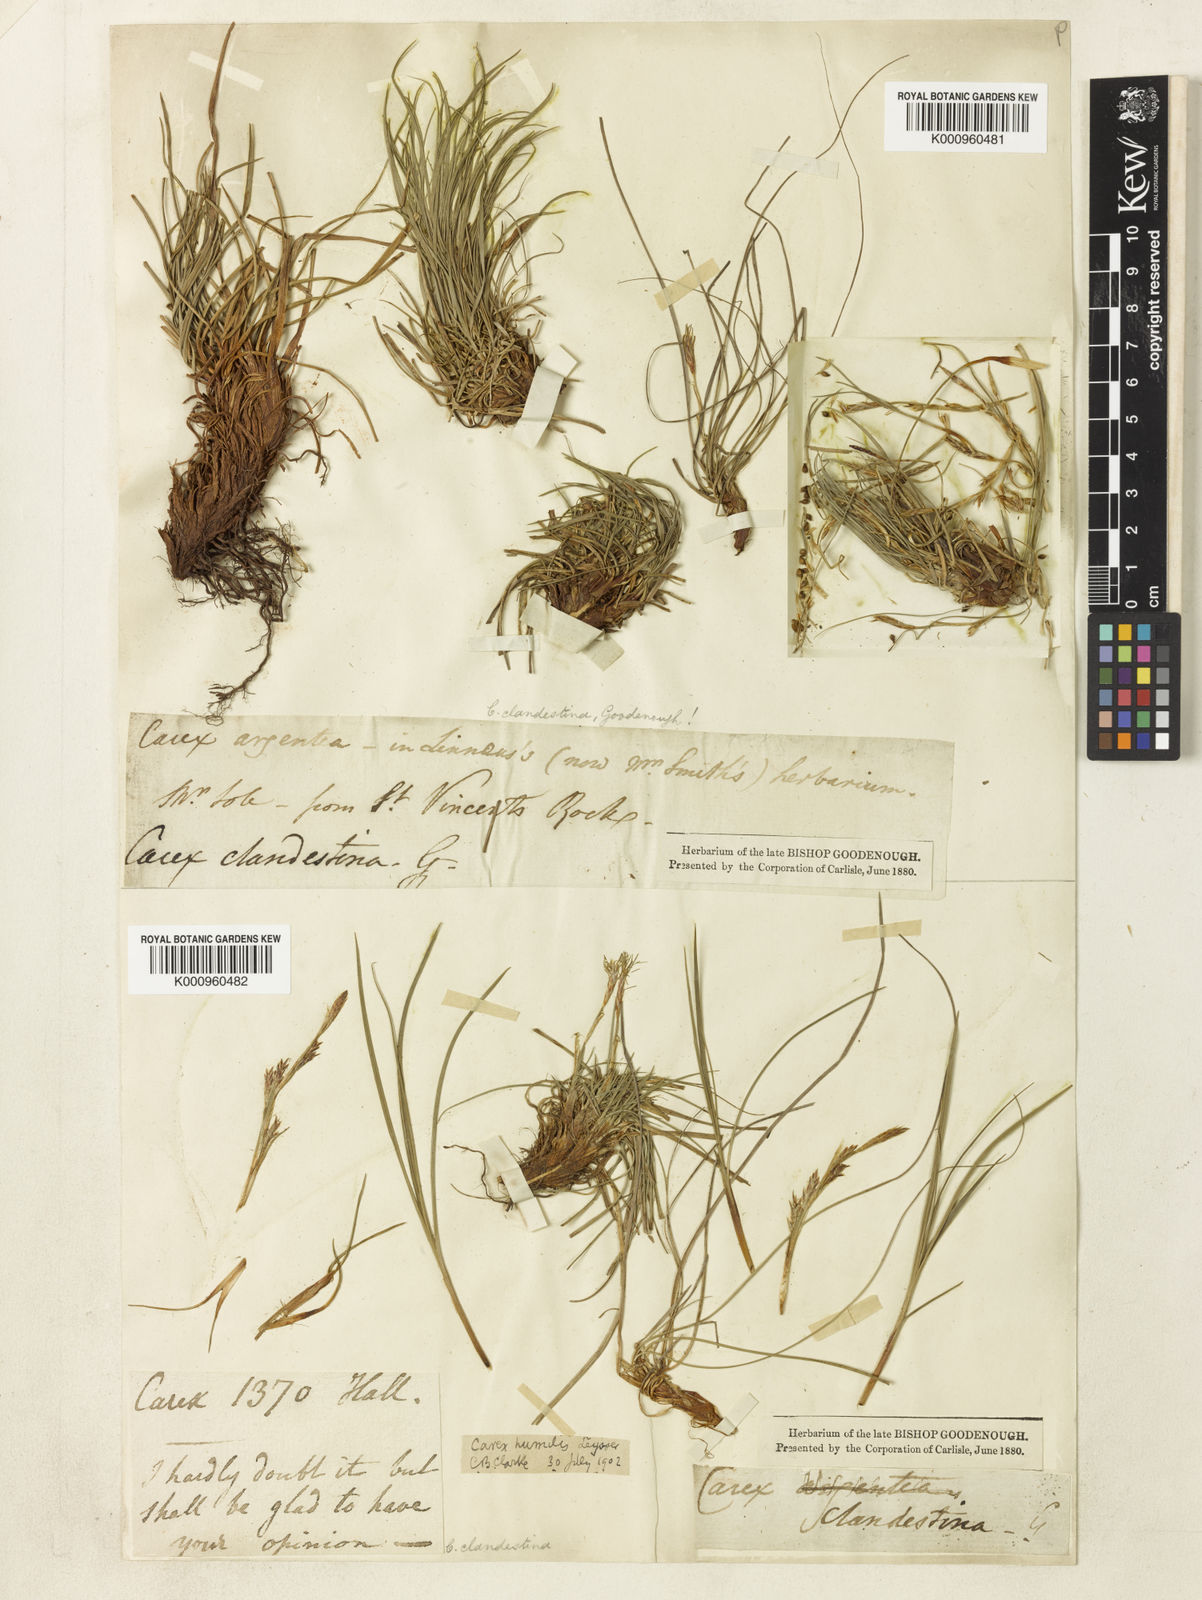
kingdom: Plantae
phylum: Tracheophyta
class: Liliopsida
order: Poales
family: Cyperaceae
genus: Carex
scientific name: Carex humilis
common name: Dwarf sedge
